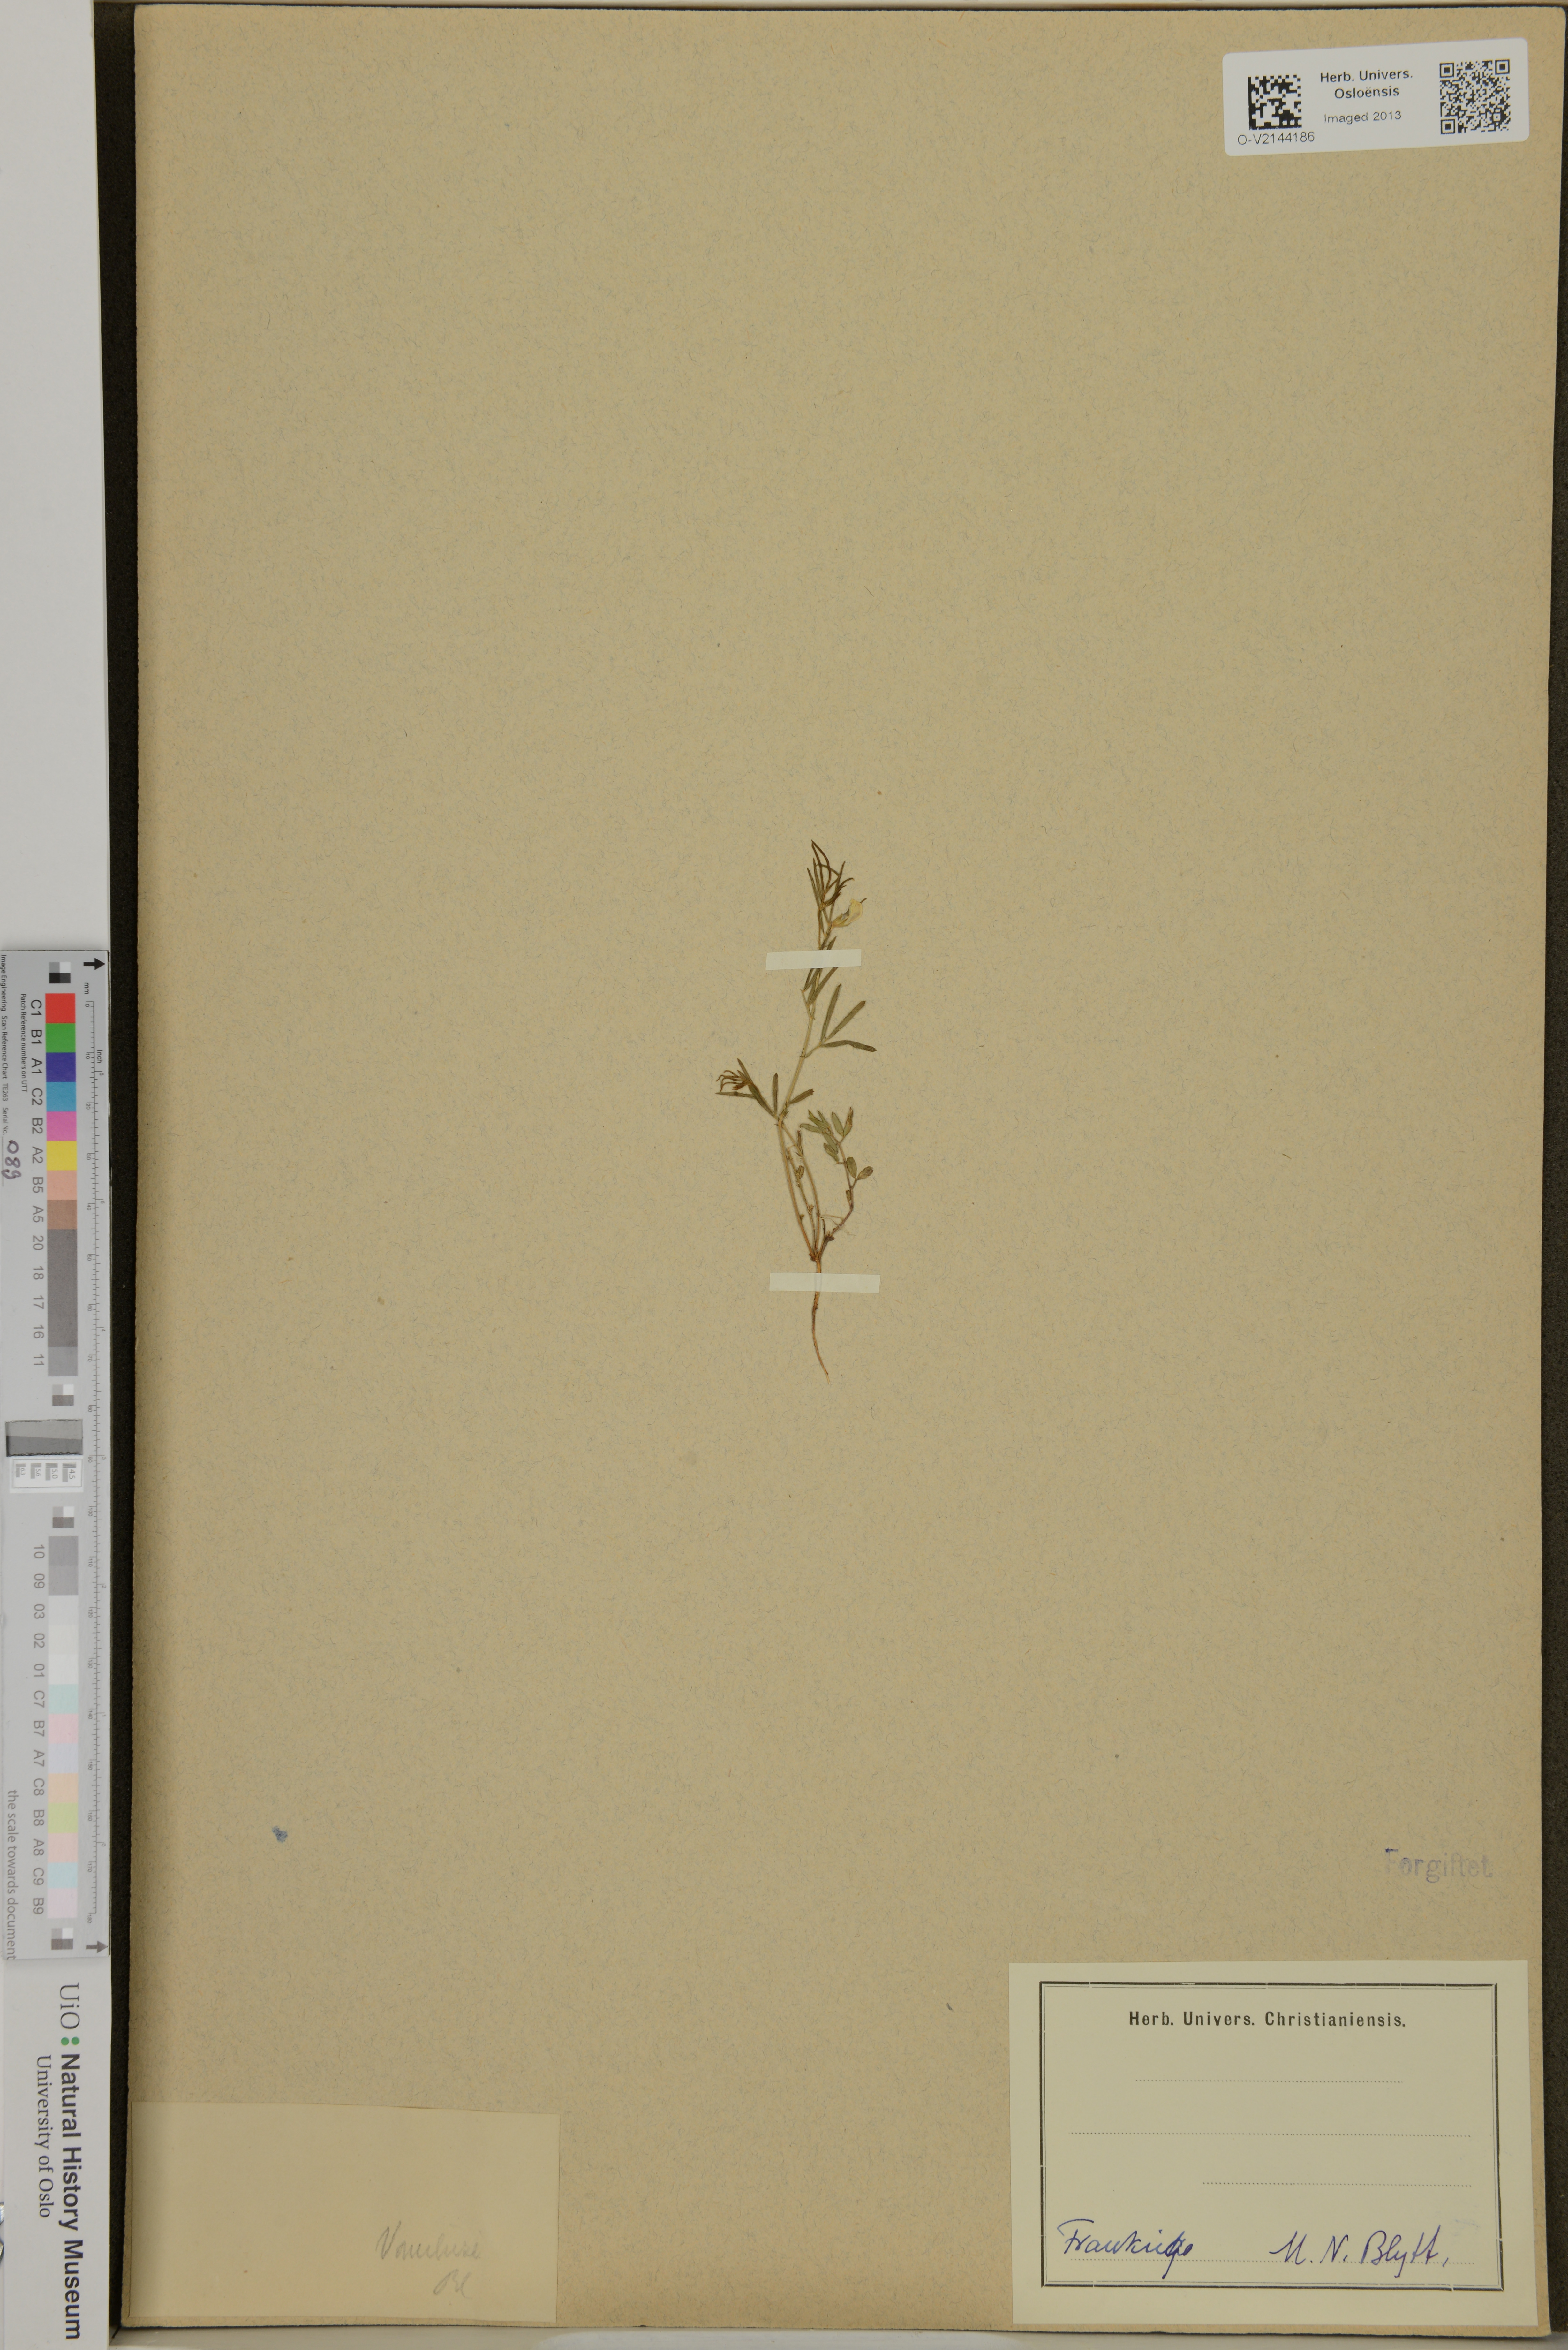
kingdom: Plantae
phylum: Tracheophyta
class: Magnoliopsida
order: Fabales
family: Fabaceae
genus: Lathyrus
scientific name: Lathyrus
